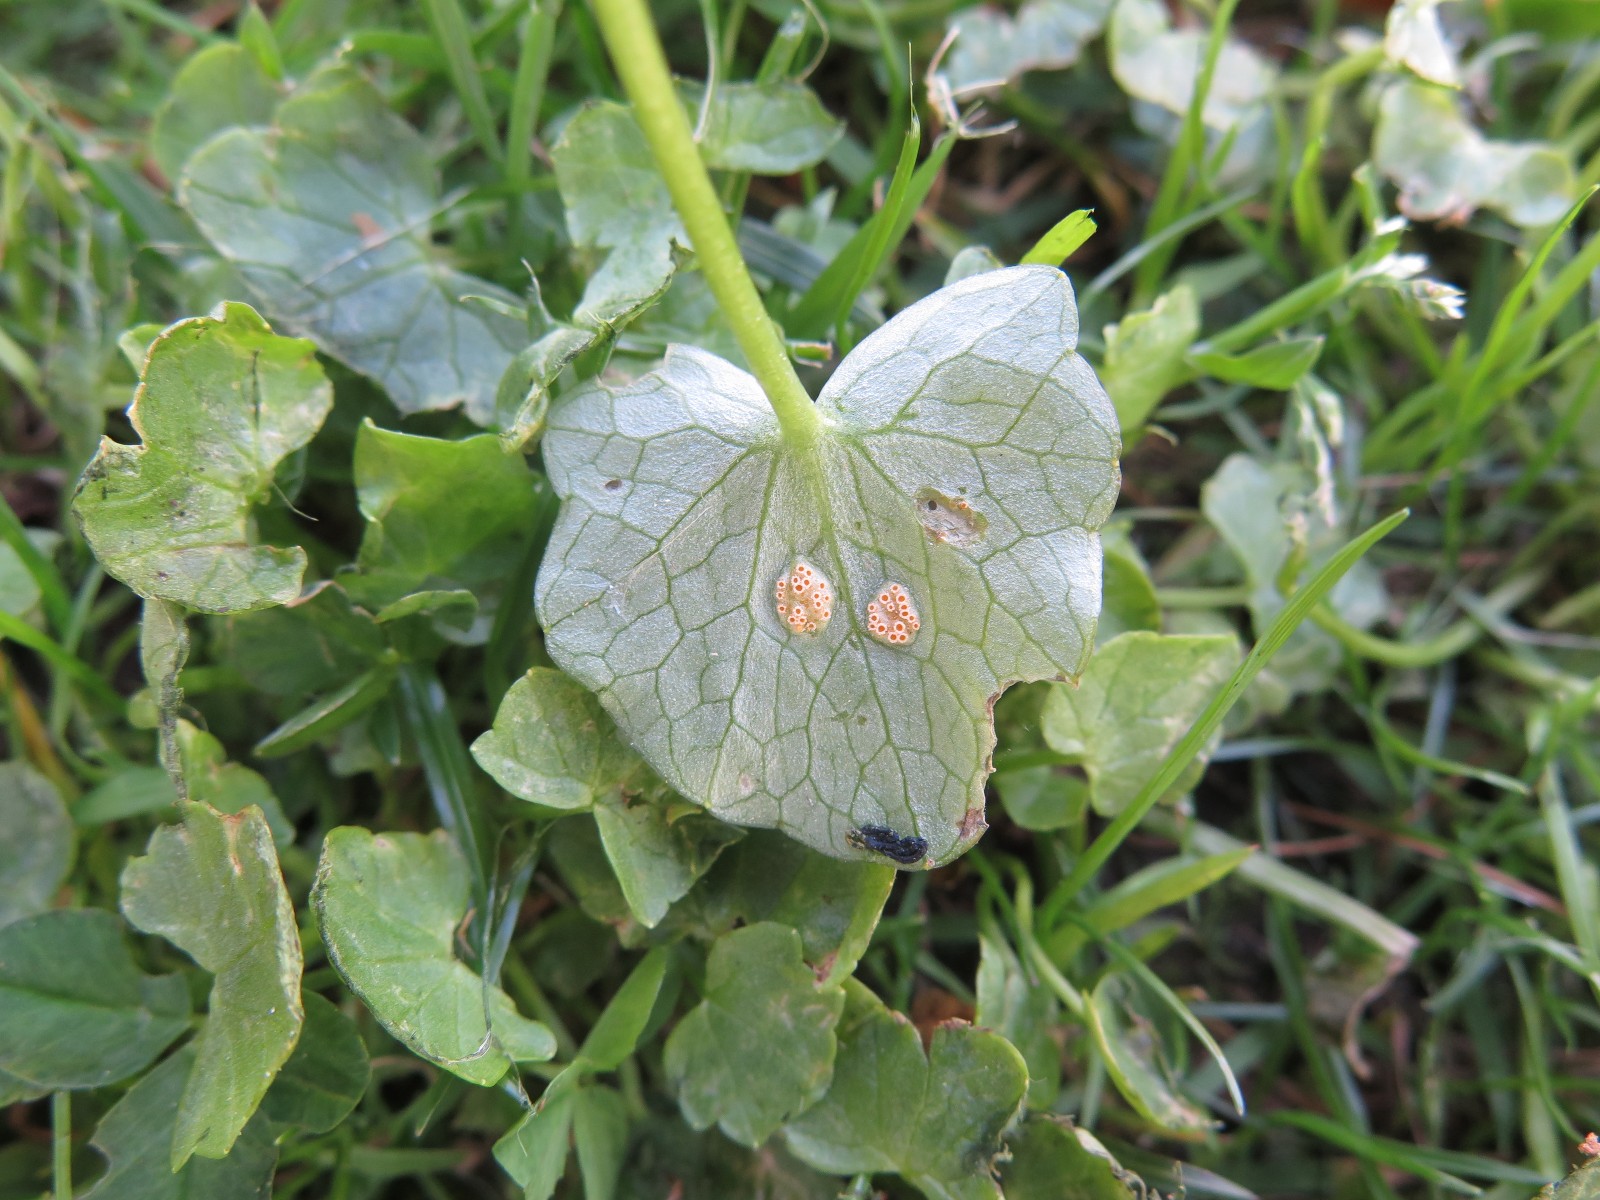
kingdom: Fungi
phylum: Basidiomycota
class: Pucciniomycetes
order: Pucciniales
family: Pucciniaceae
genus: Uromyces
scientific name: Uromyces dactylidis
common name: ranunkel-encellerust
